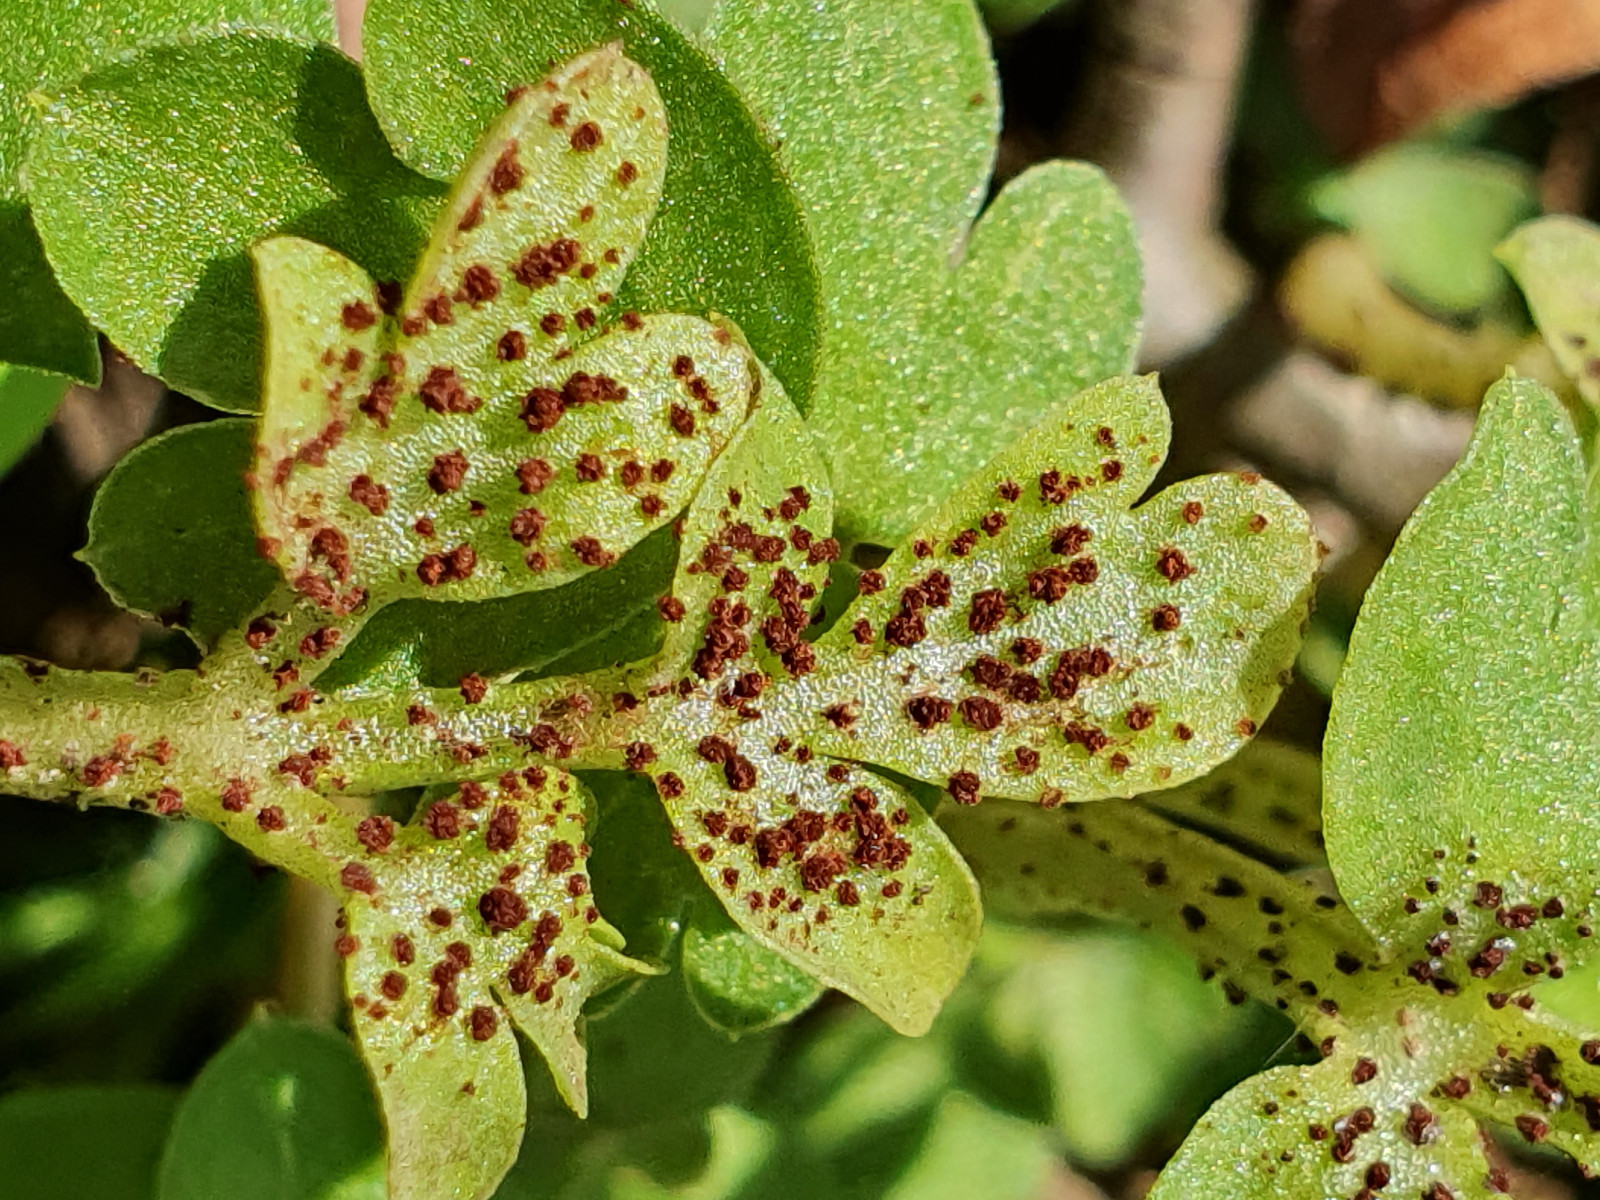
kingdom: Fungi
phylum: Basidiomycota
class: Pucciniomycetes
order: Pucciniales
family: Pucciniaceae
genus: Puccinia
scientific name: Puccinia adoxae
